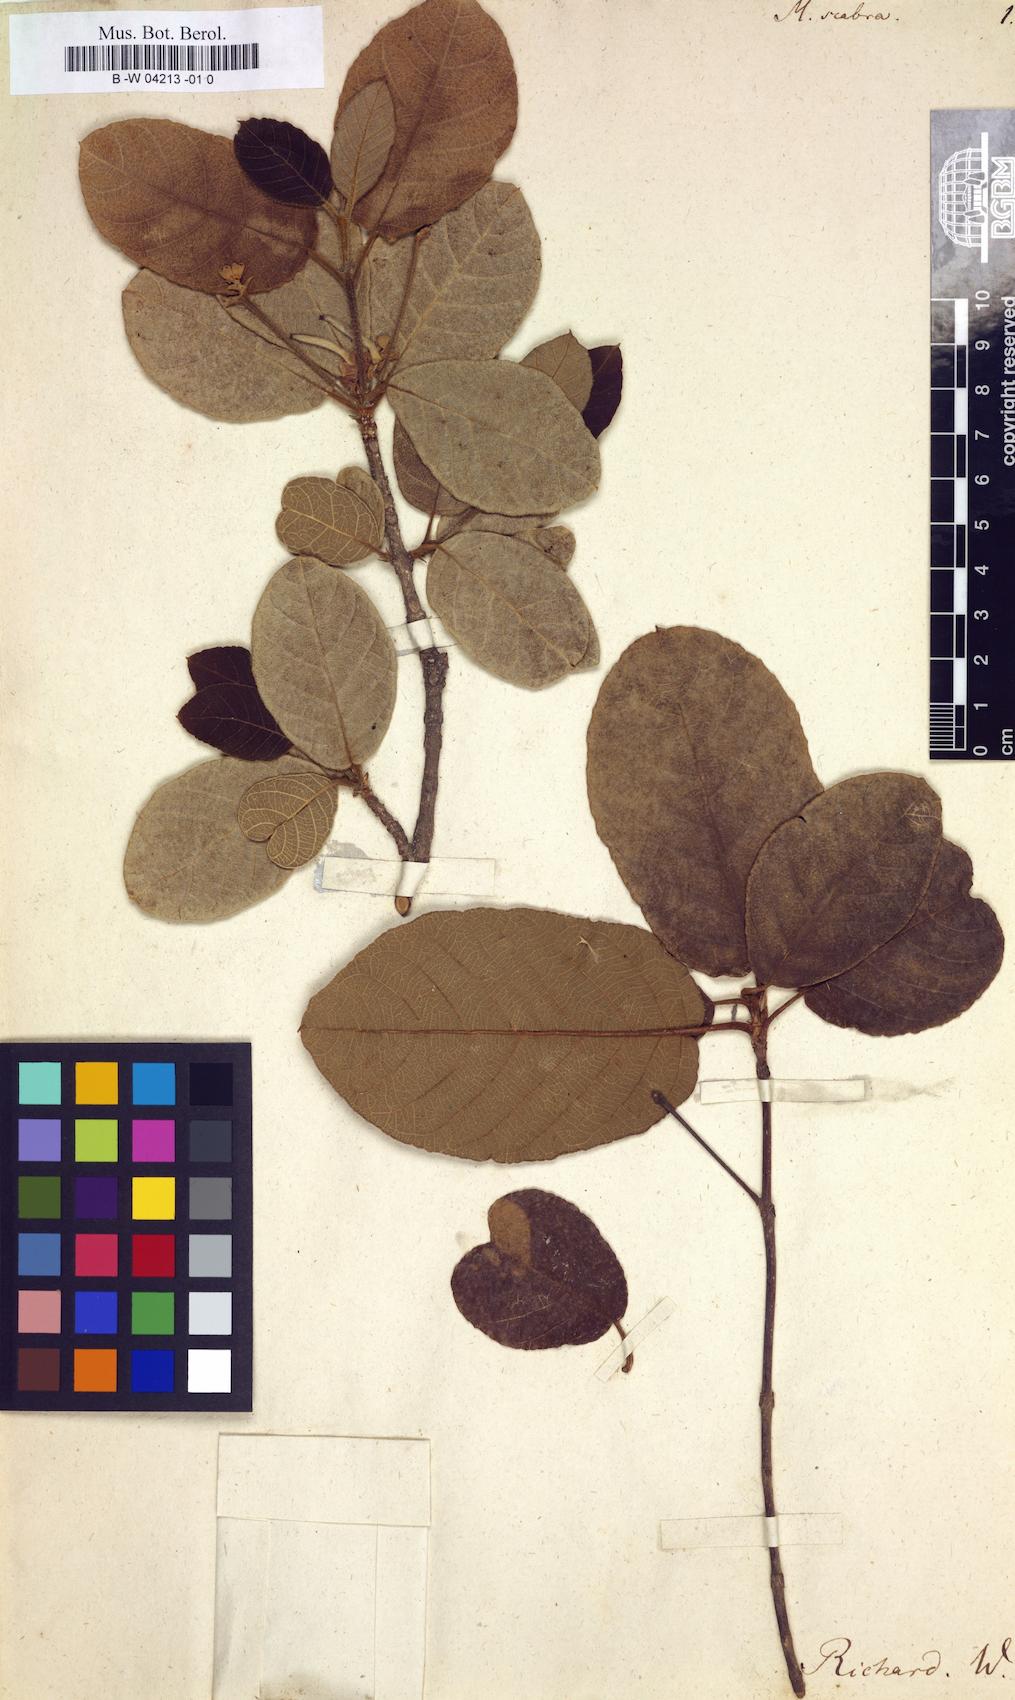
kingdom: Plantae
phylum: Tracheophyta
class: Magnoliopsida
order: Gentianales
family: Rubiaceae
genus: Guettarda
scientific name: Guettarda scabra
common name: Pigeon bay
